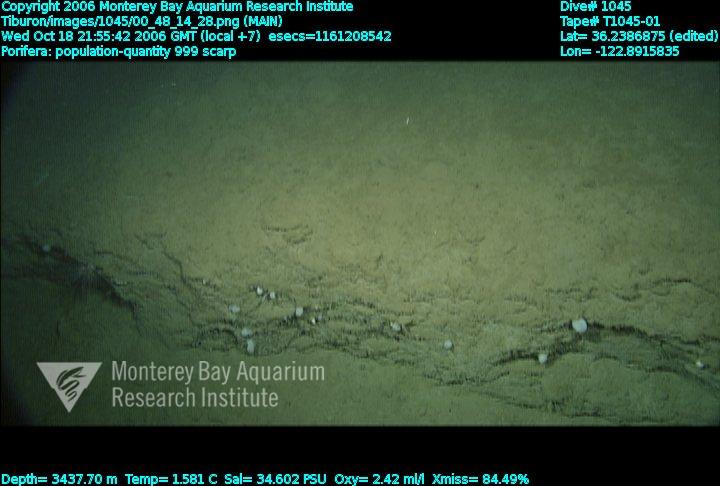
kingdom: Animalia
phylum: Porifera
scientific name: Porifera
